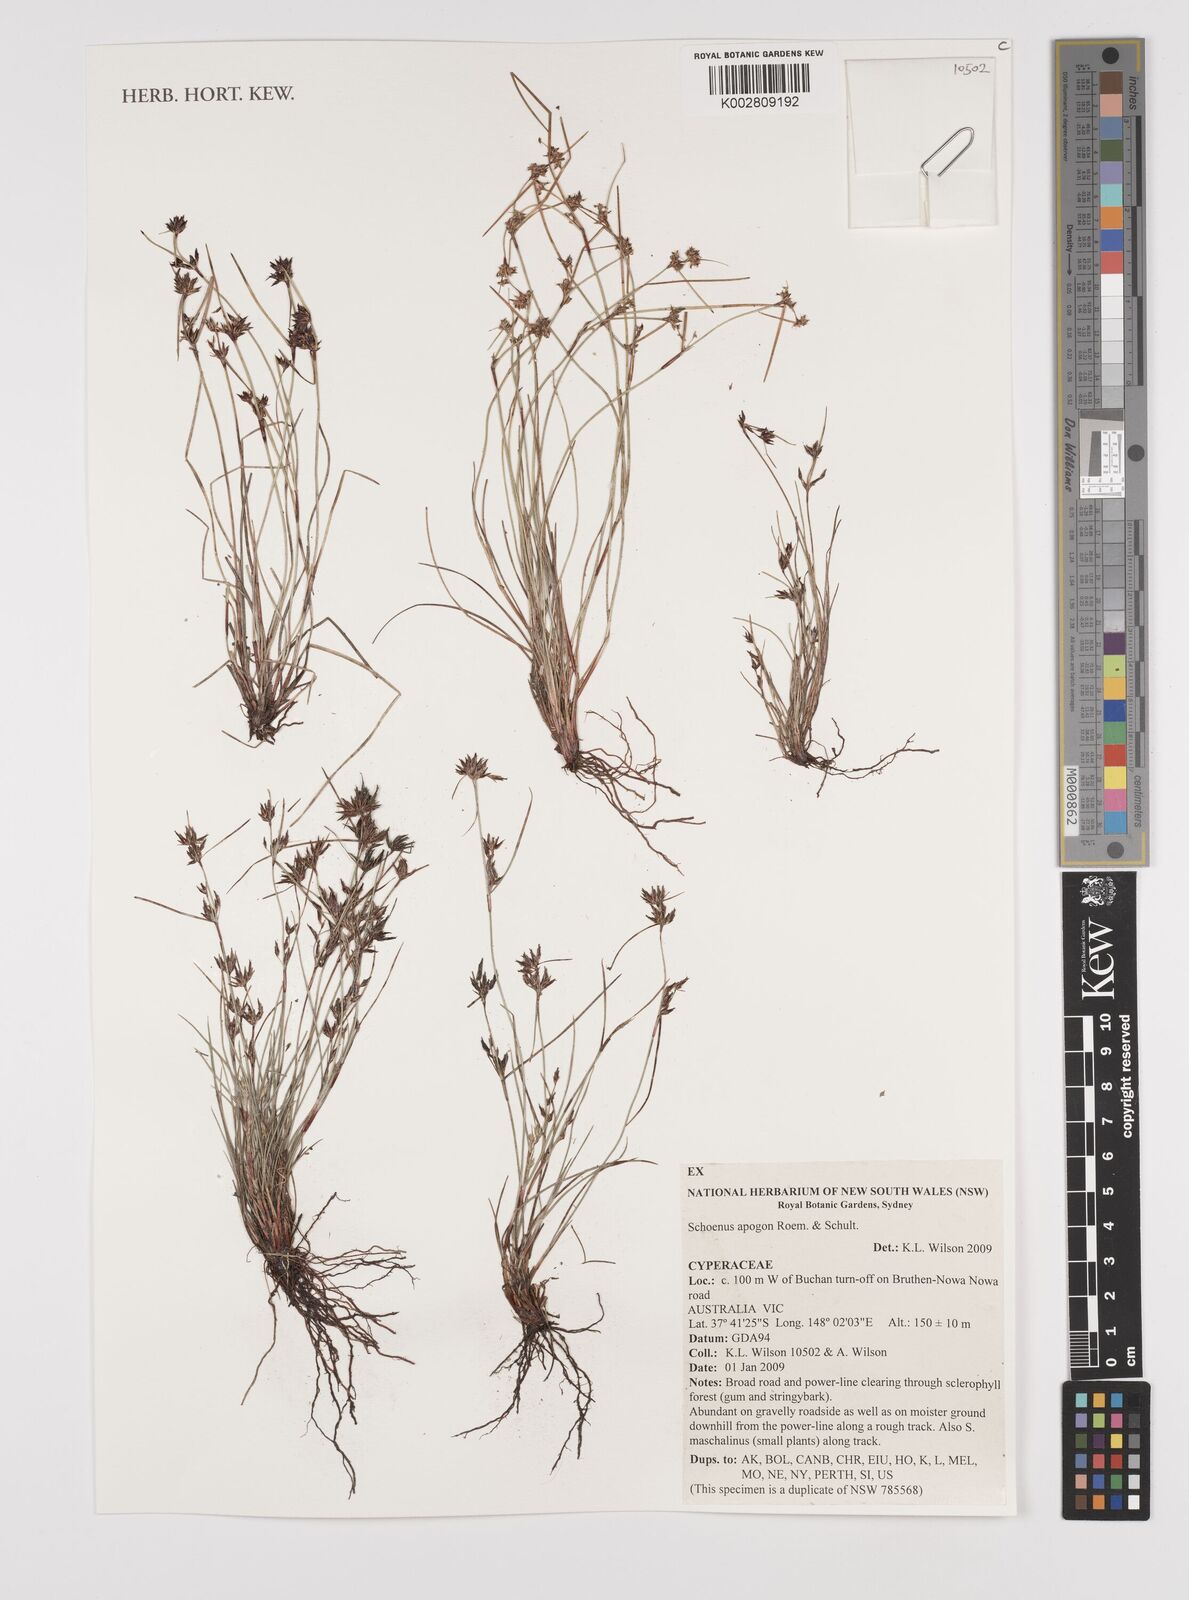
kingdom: Plantae
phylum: Tracheophyta
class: Liliopsida
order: Poales
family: Cyperaceae
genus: Schoenus
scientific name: Schoenus apogon
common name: Smooth bogrush
